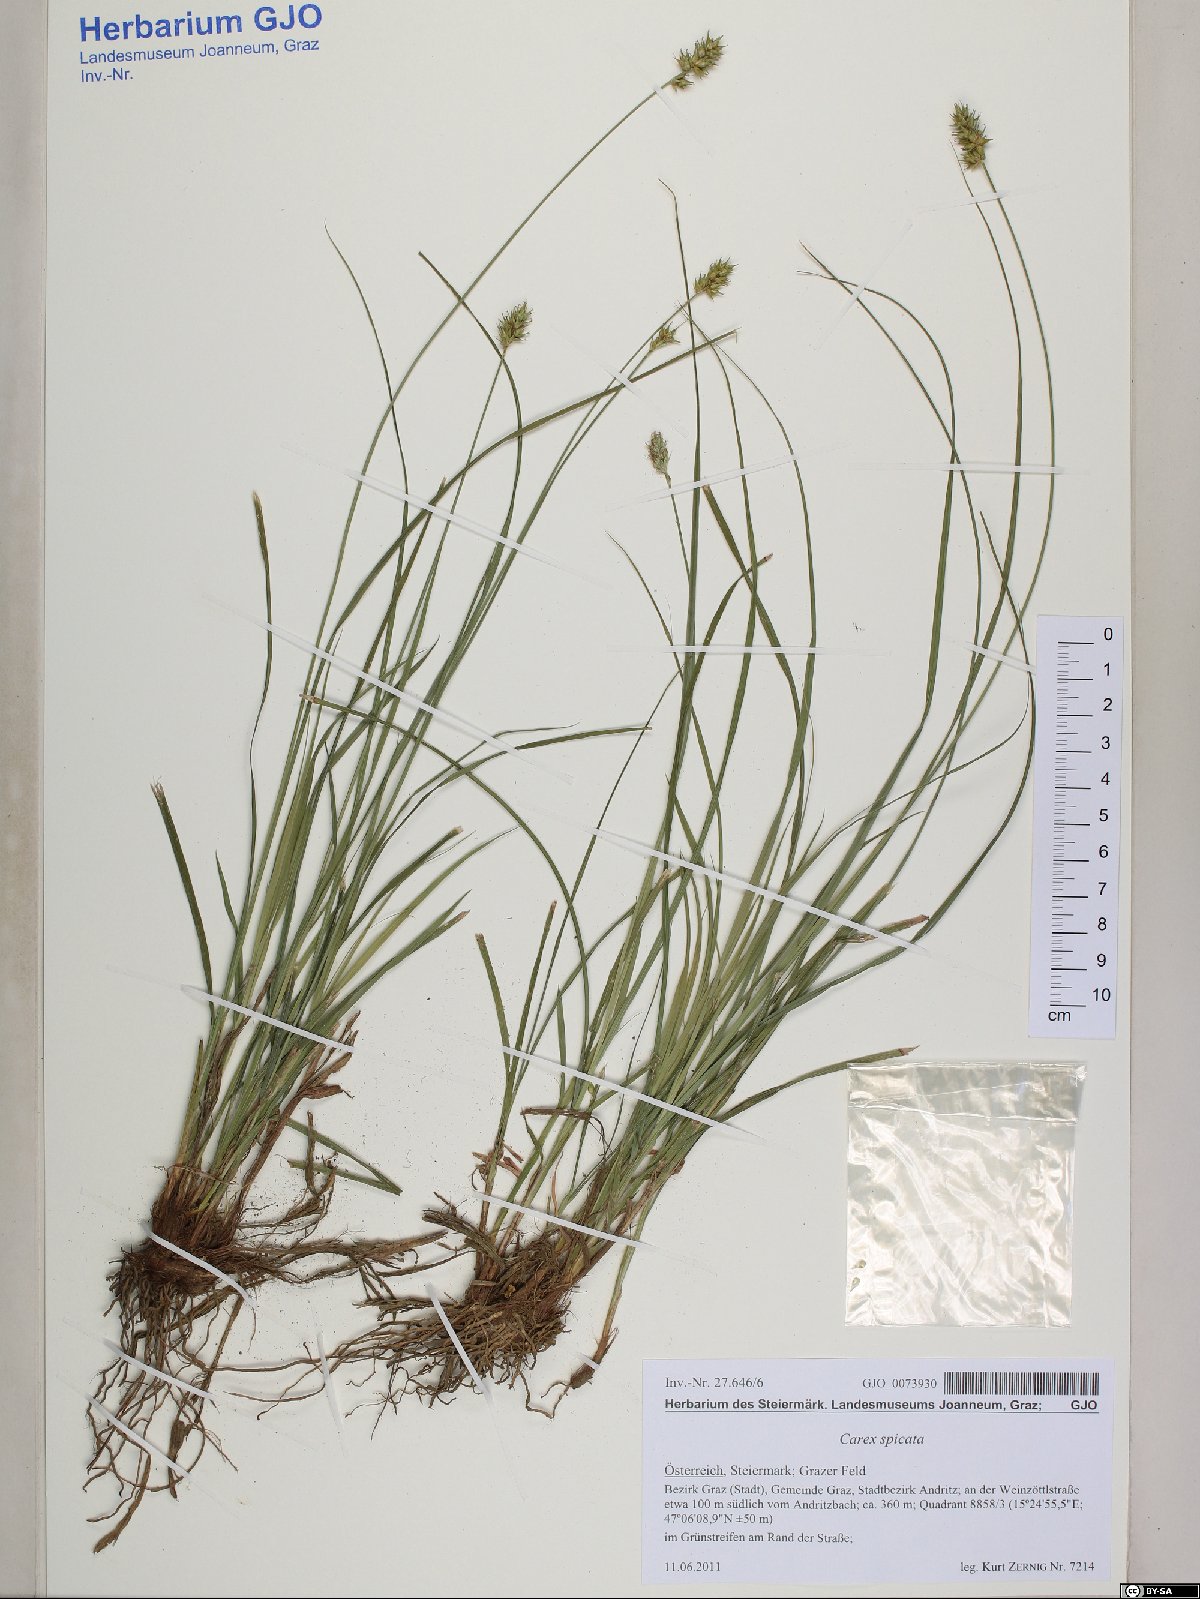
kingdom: Plantae
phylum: Tracheophyta
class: Liliopsida
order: Poales
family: Cyperaceae
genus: Carex
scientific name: Carex spicata
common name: Spiked sedge
